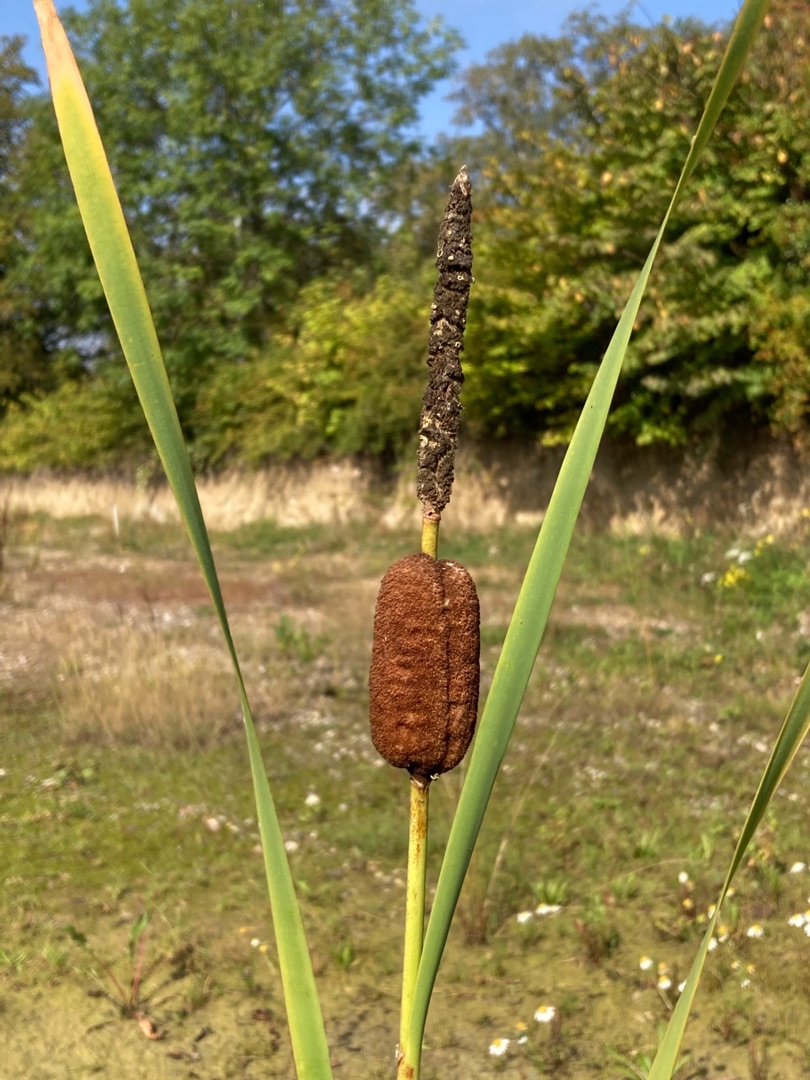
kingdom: Plantae
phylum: Tracheophyta
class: Liliopsida
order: Poales
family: Typhaceae
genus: Typha
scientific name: Typha latifolia
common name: Bredbladet dunhammer
